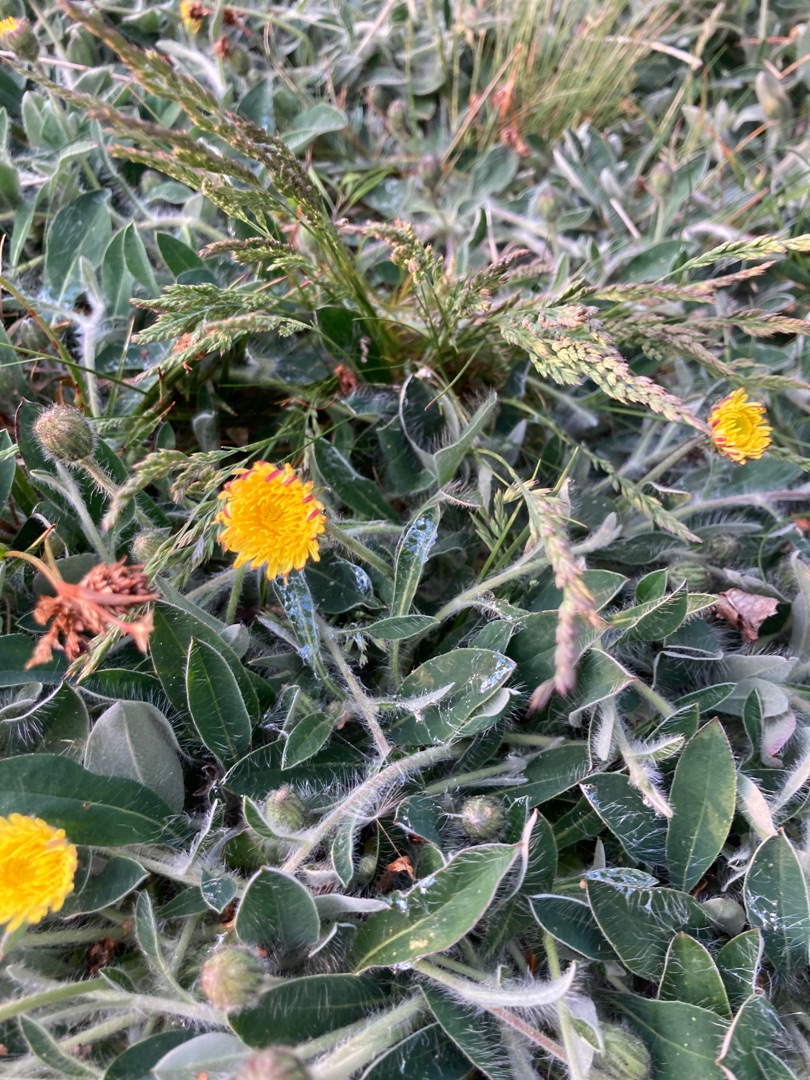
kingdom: Plantae
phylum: Tracheophyta
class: Magnoliopsida
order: Asterales
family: Asteraceae
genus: Pilosella
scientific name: Pilosella officinarum
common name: Håret høgeurt
